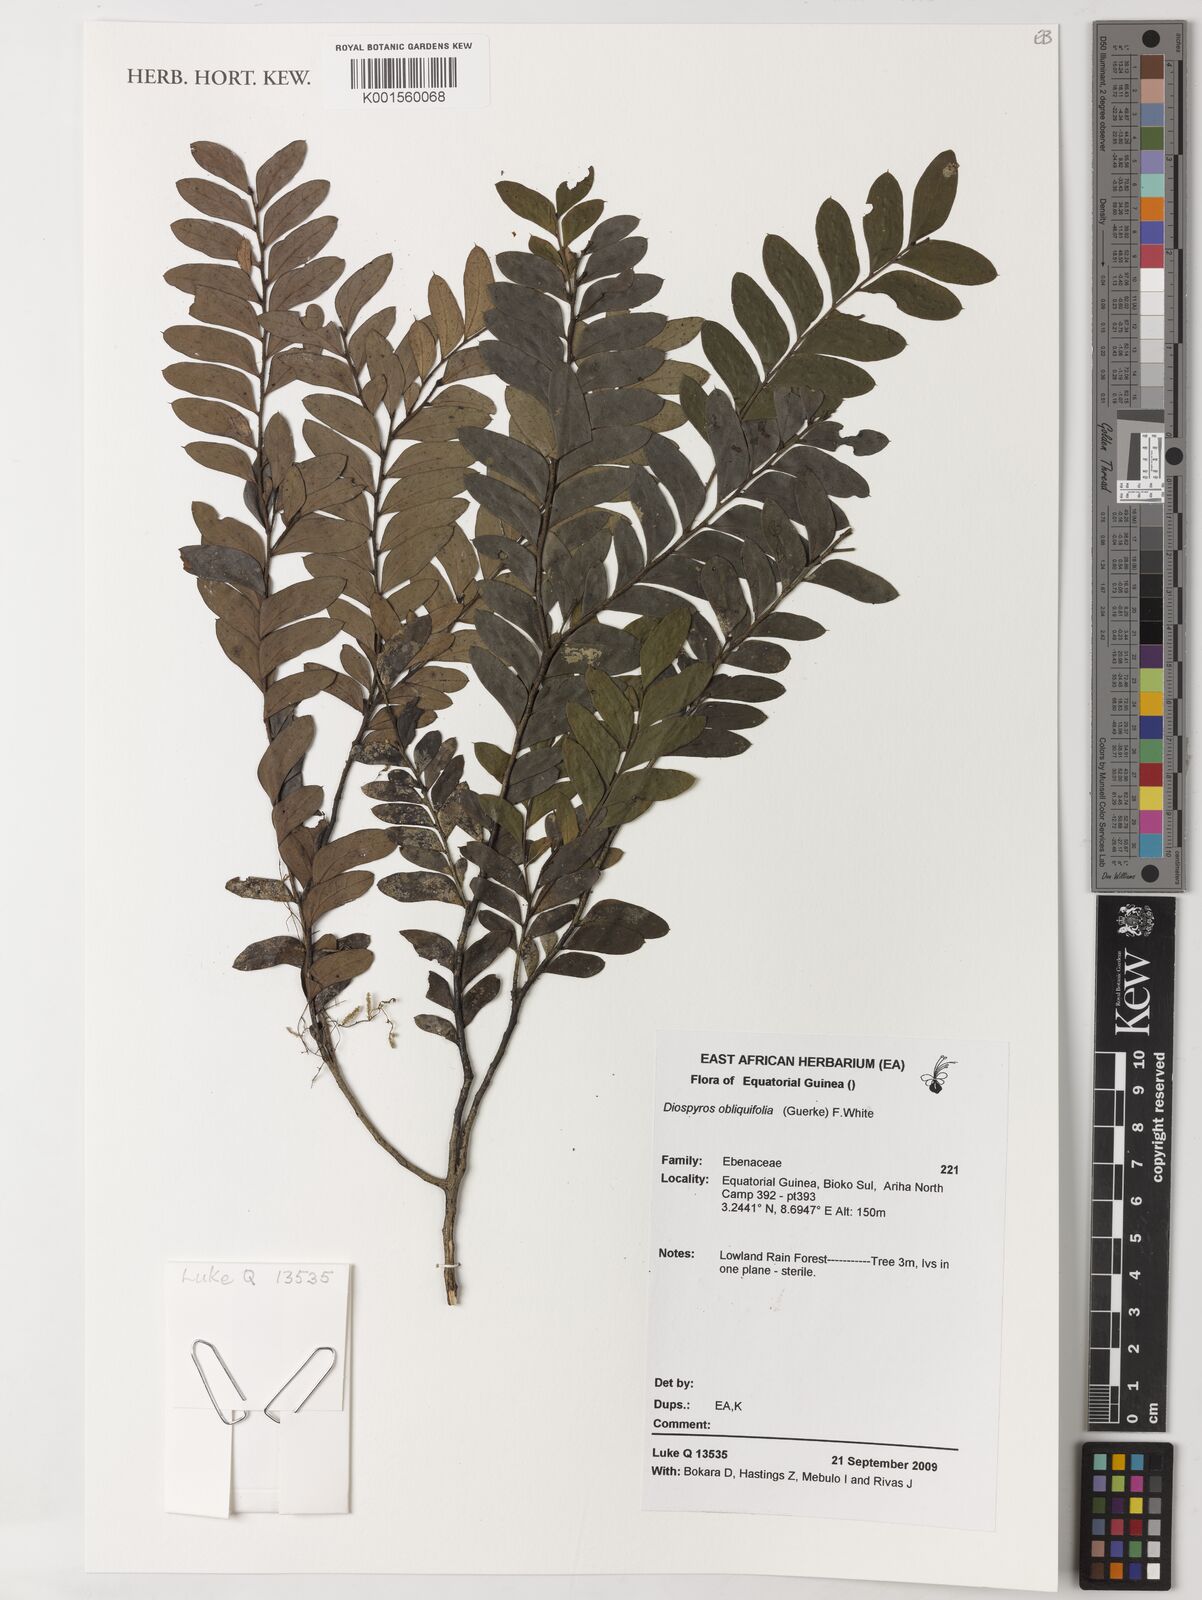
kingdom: Plantae
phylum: Tracheophyta
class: Magnoliopsida
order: Ericales
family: Ebenaceae
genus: Diospyros
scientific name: Diospyros obliquifolia
